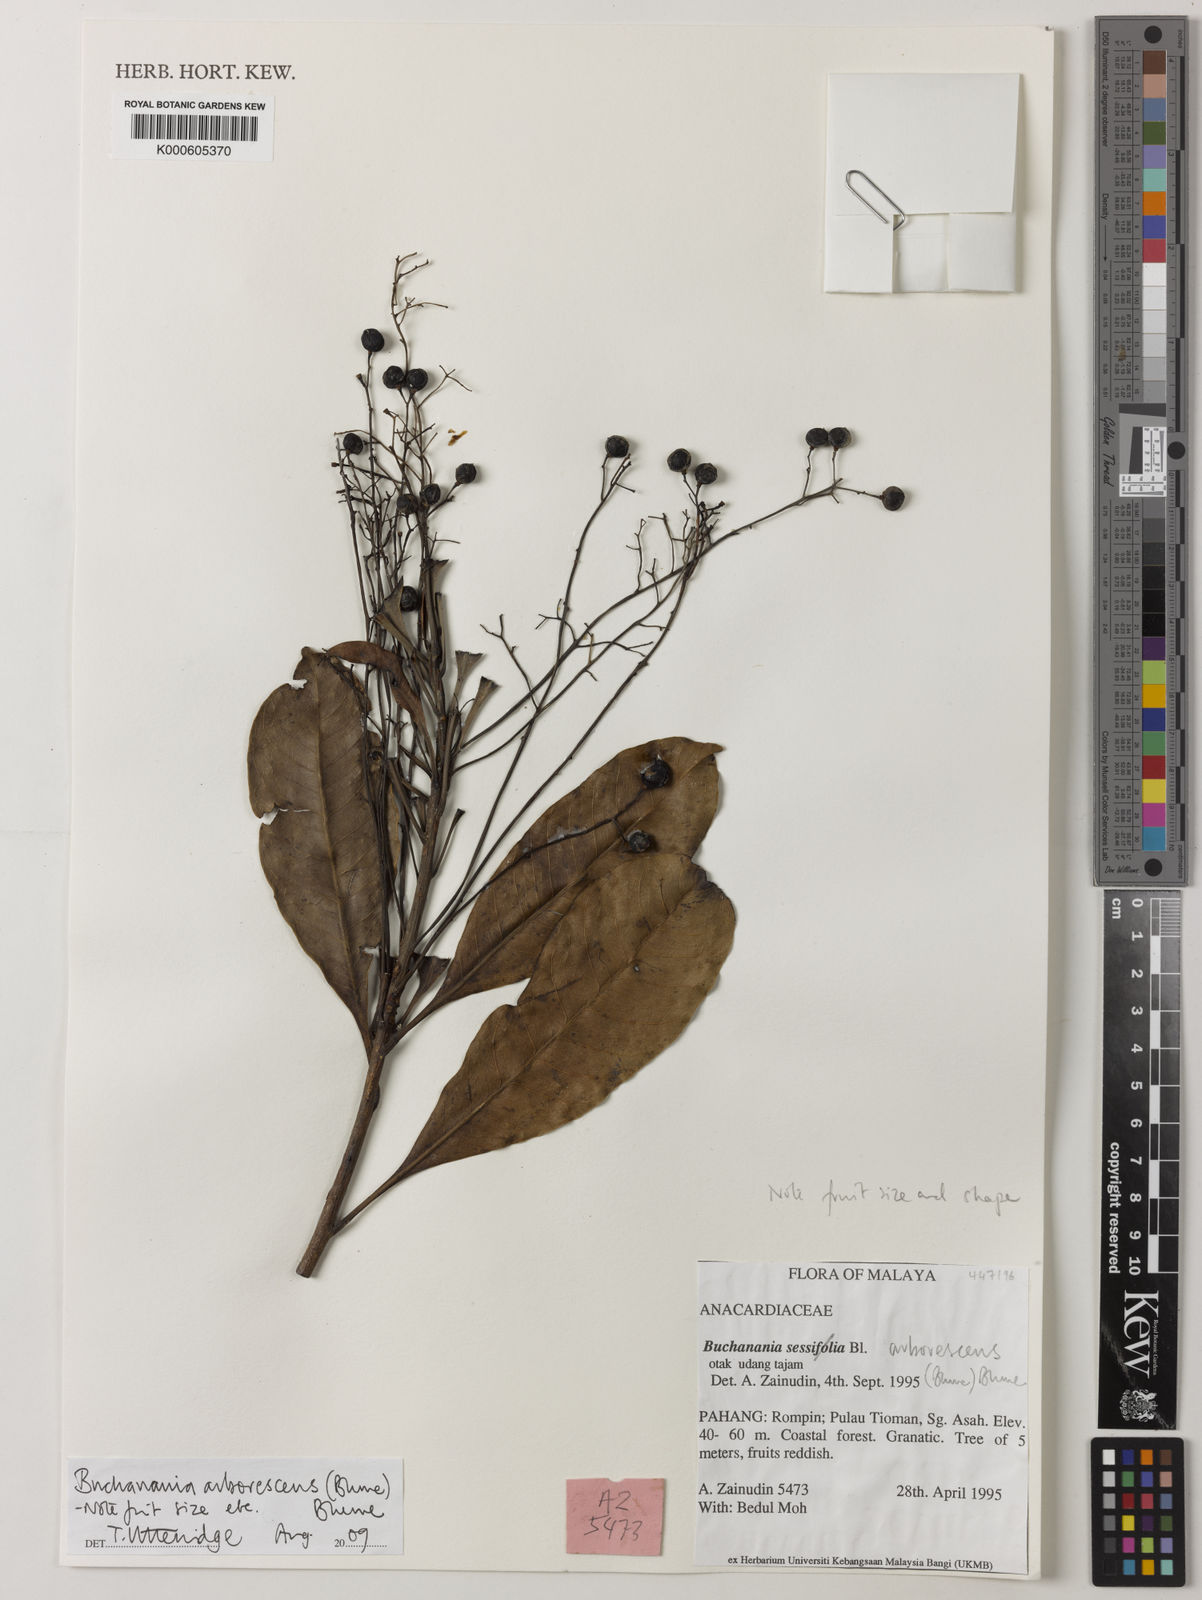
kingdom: Plantae
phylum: Tracheophyta
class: Magnoliopsida
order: Sapindales
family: Anacardiaceae
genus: Buchanania
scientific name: Buchanania arborescens
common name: Sparrow’s mango
